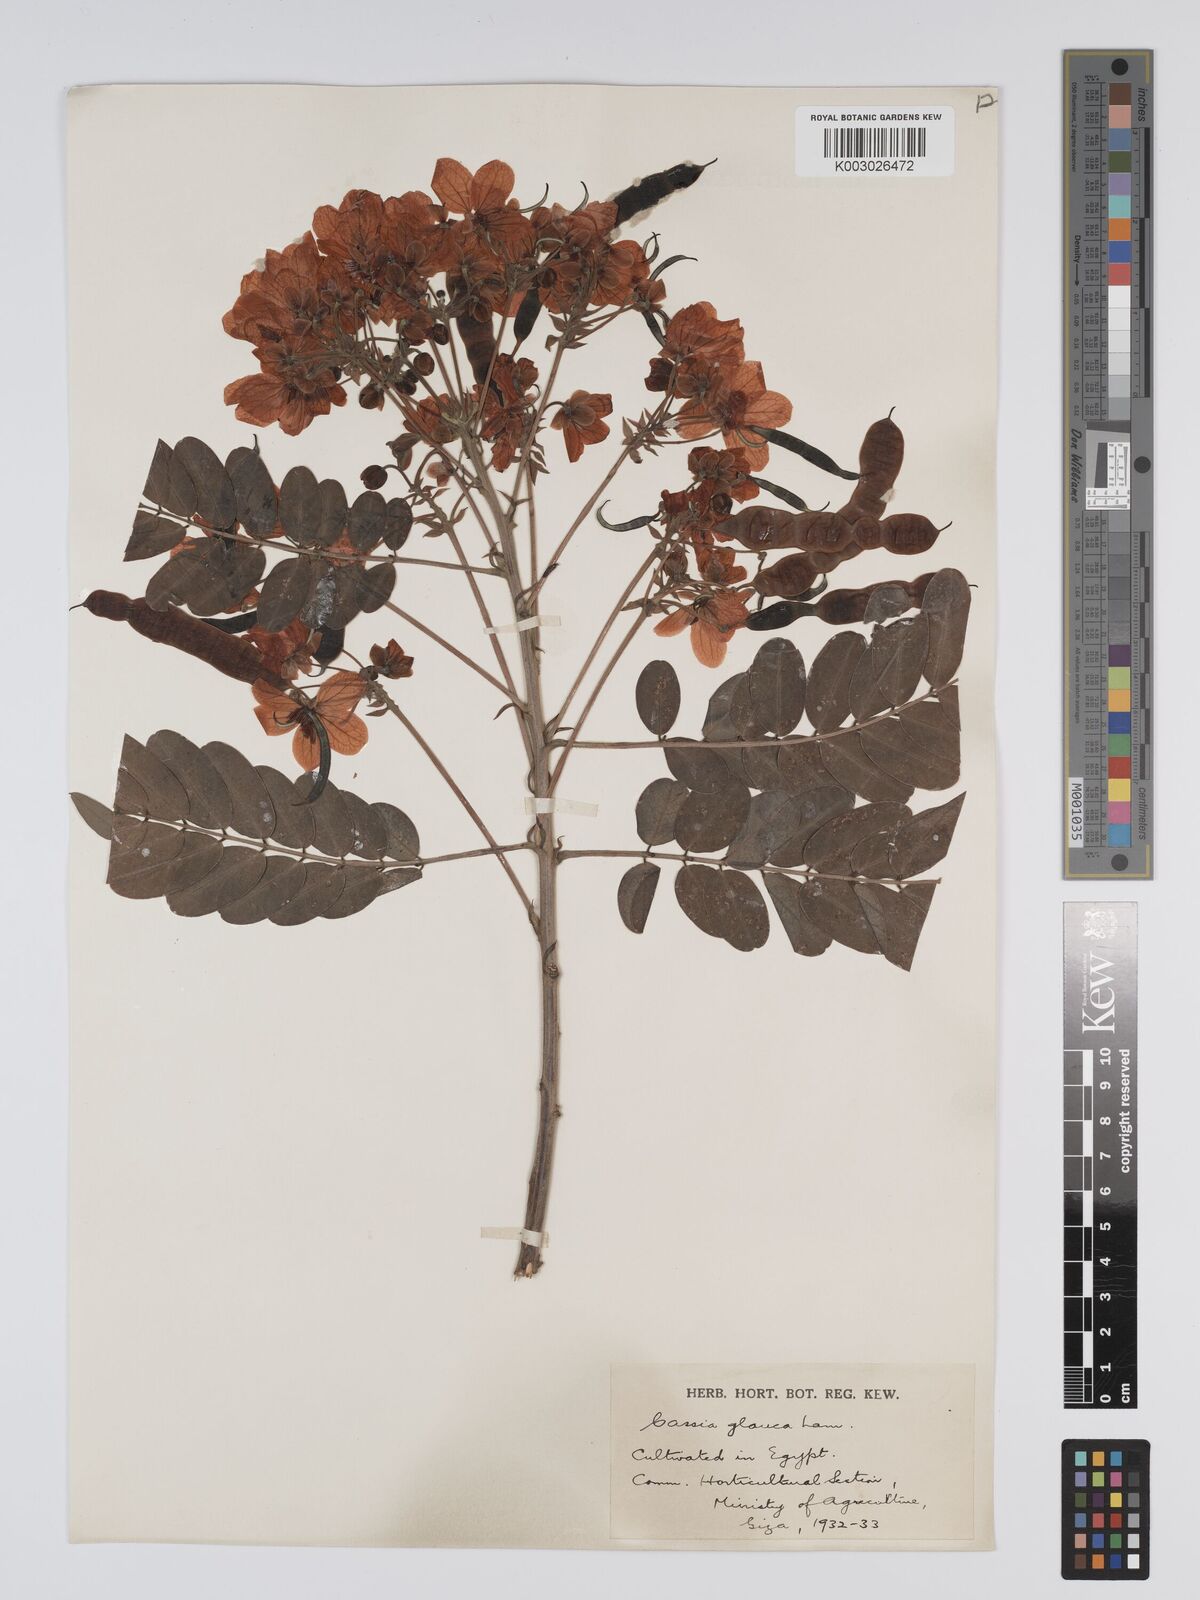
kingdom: Plantae
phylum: Tracheophyta
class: Magnoliopsida
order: Fabales
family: Fabaceae
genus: Senna
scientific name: Senna sulfurea
